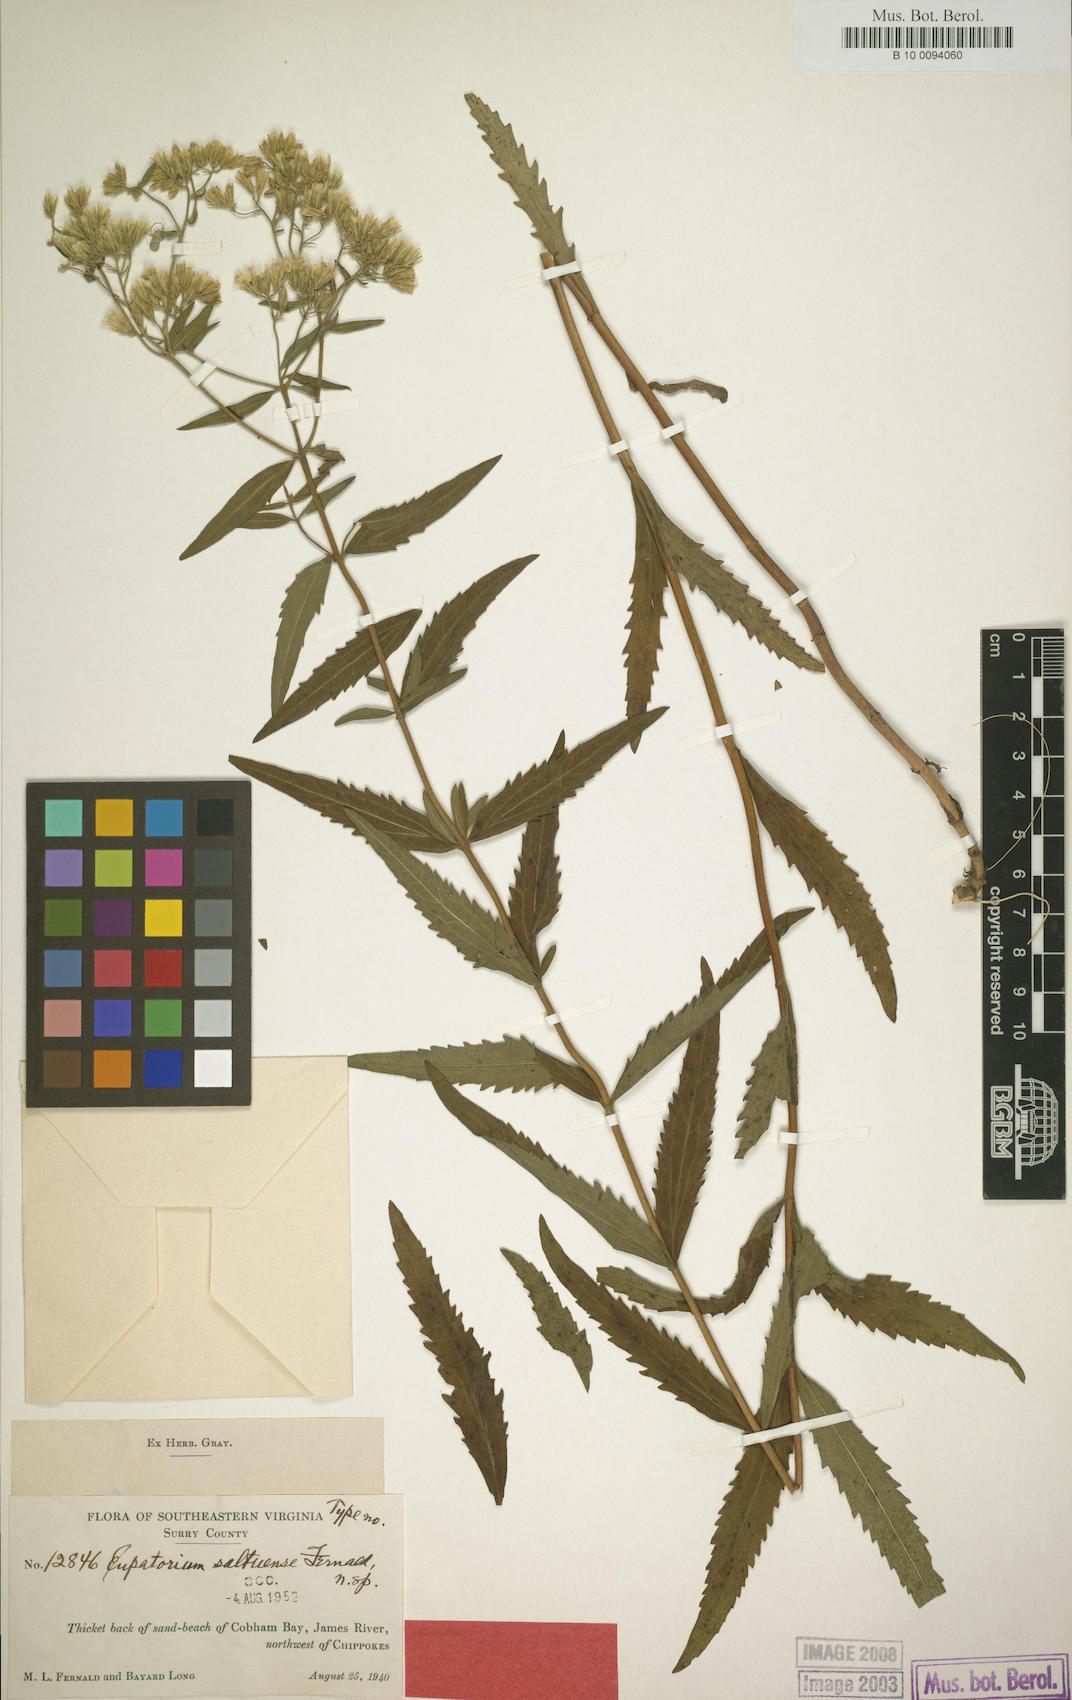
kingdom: Plantae
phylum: Tracheophyta
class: Magnoliopsida
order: Asterales
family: Asteraceae
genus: Eupatorium
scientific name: Eupatorium altissimum
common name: Tall thoroughwort
